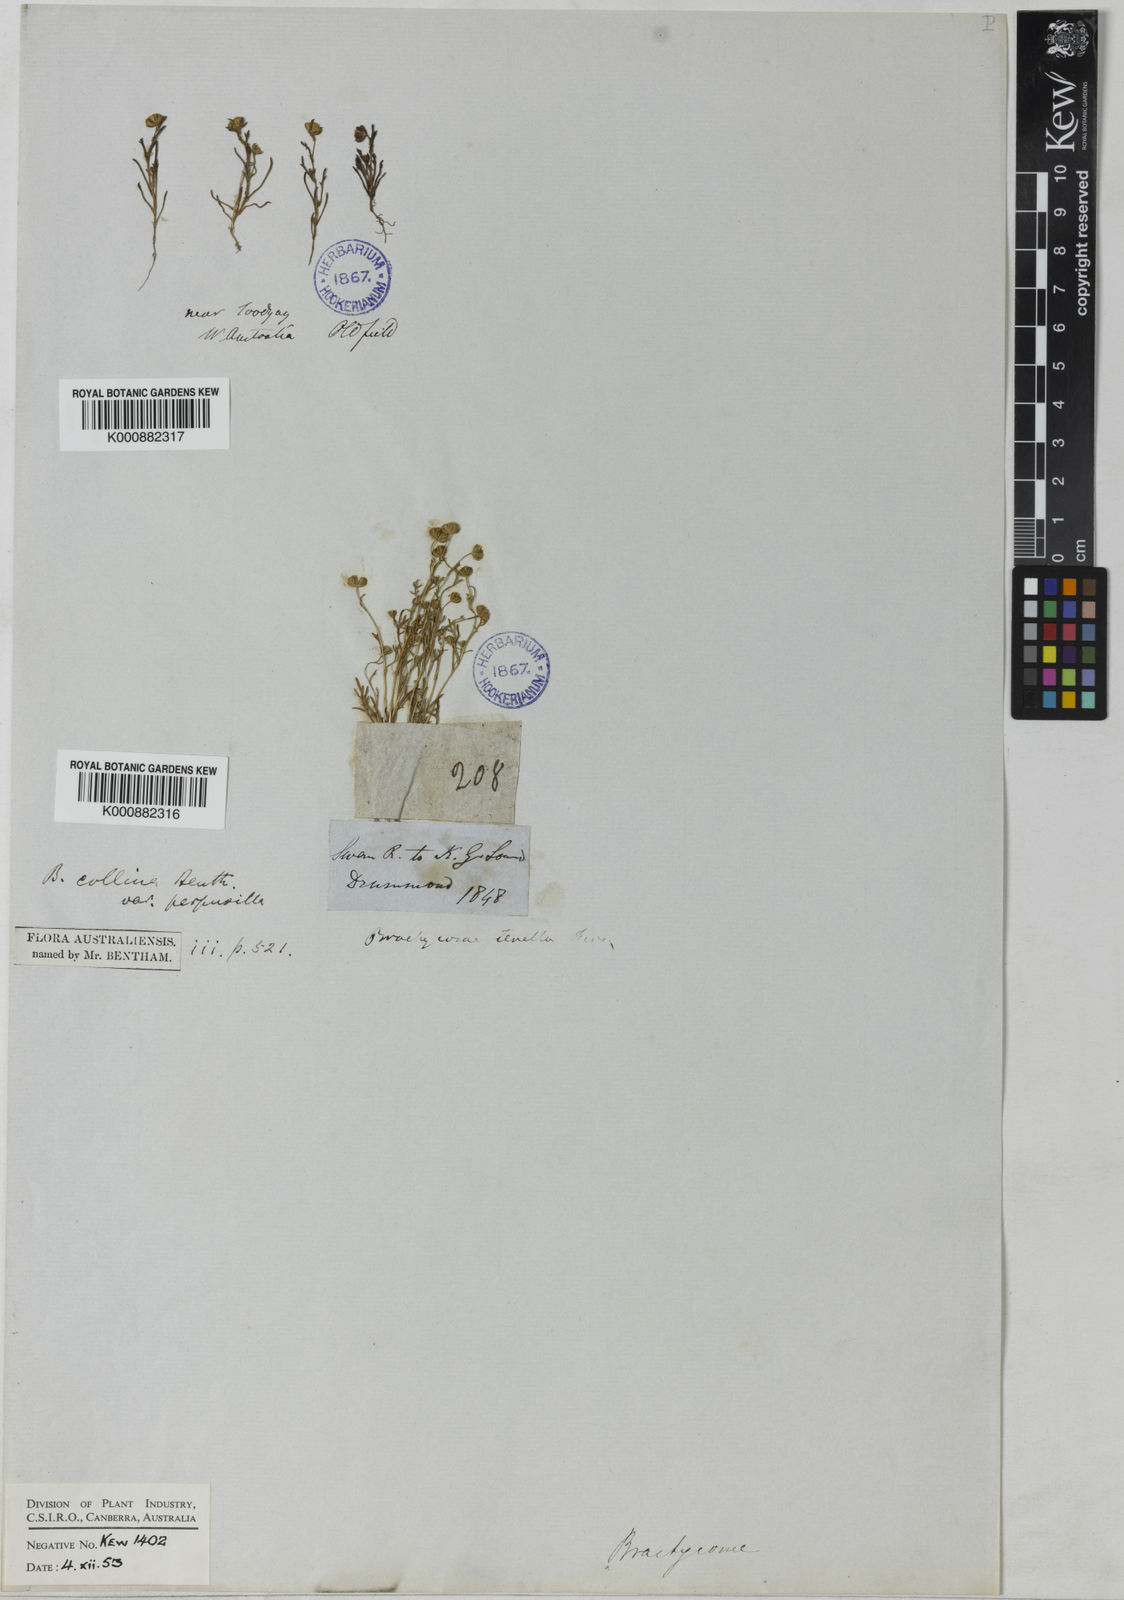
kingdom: Plantae
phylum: Tracheophyta
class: Magnoliopsida
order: Asterales
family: Asteraceae
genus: Brachyscome
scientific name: Brachyscome perpusilla
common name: Tiny daisy
